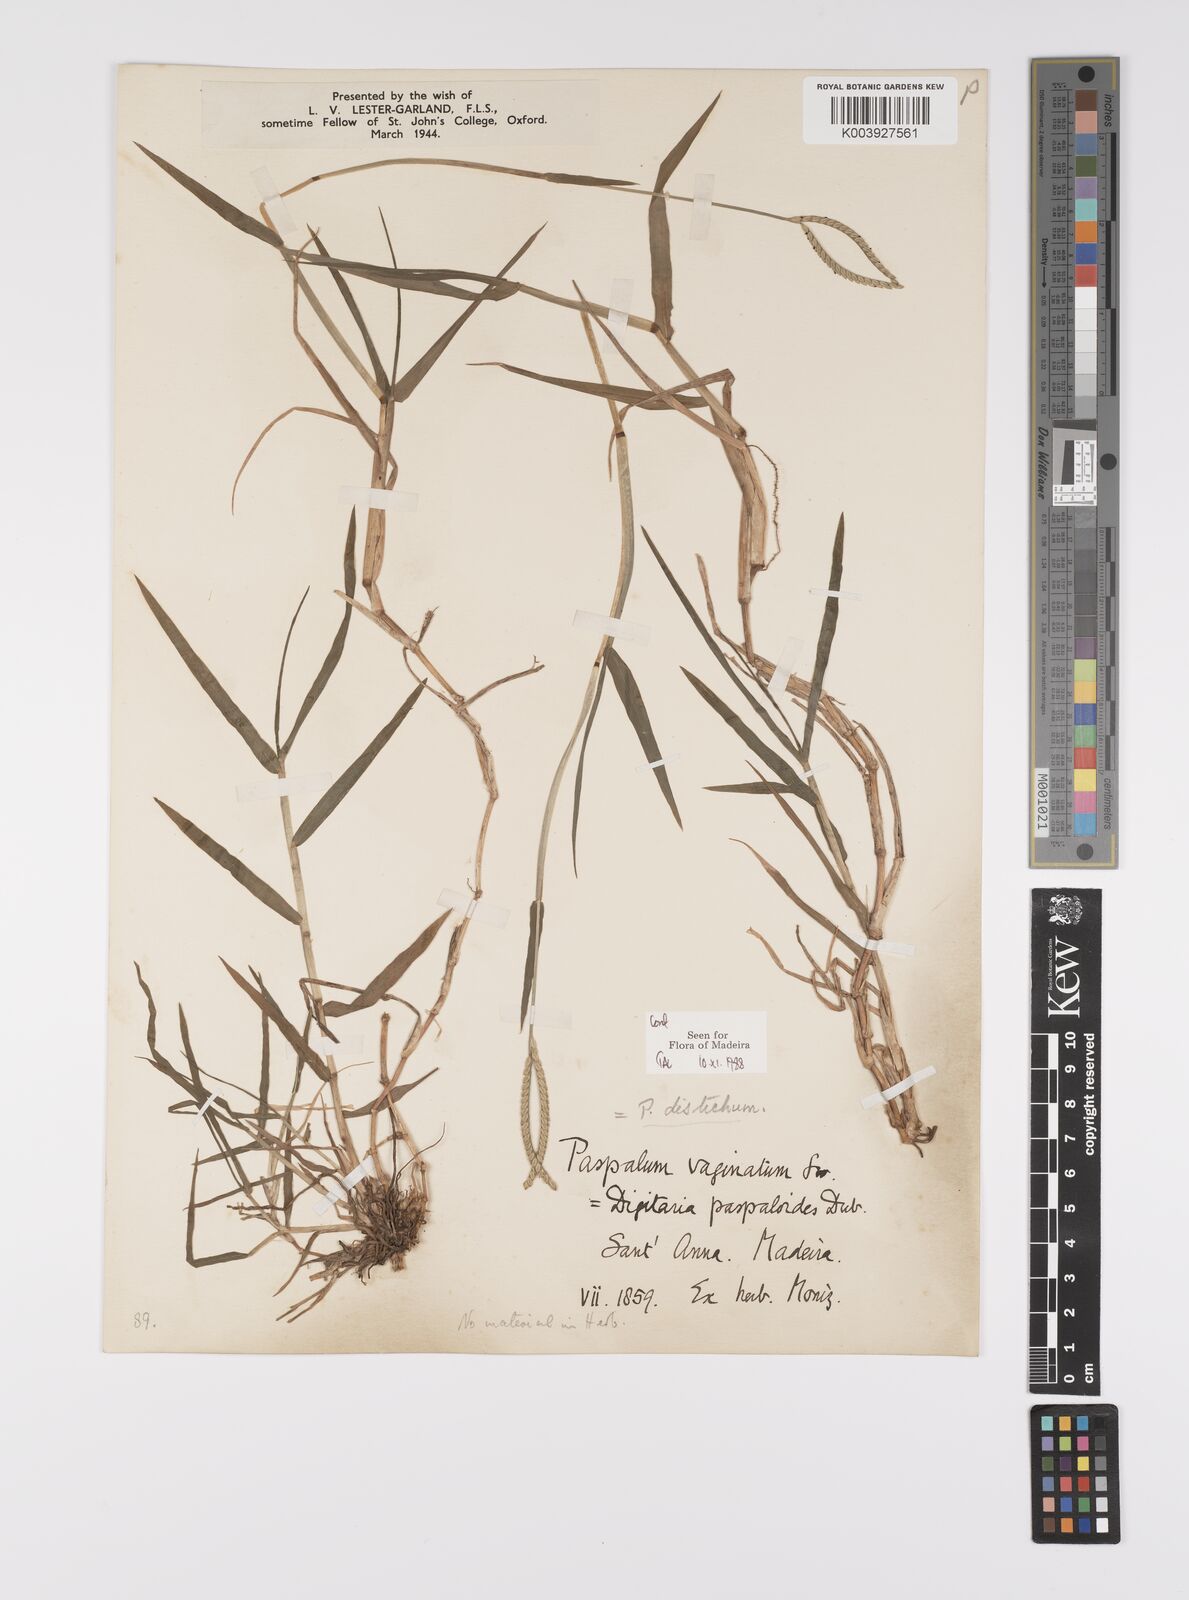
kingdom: Plantae
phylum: Tracheophyta
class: Liliopsida
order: Poales
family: Poaceae
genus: Paspalum
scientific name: Paspalum distichum
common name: Knotgrass
